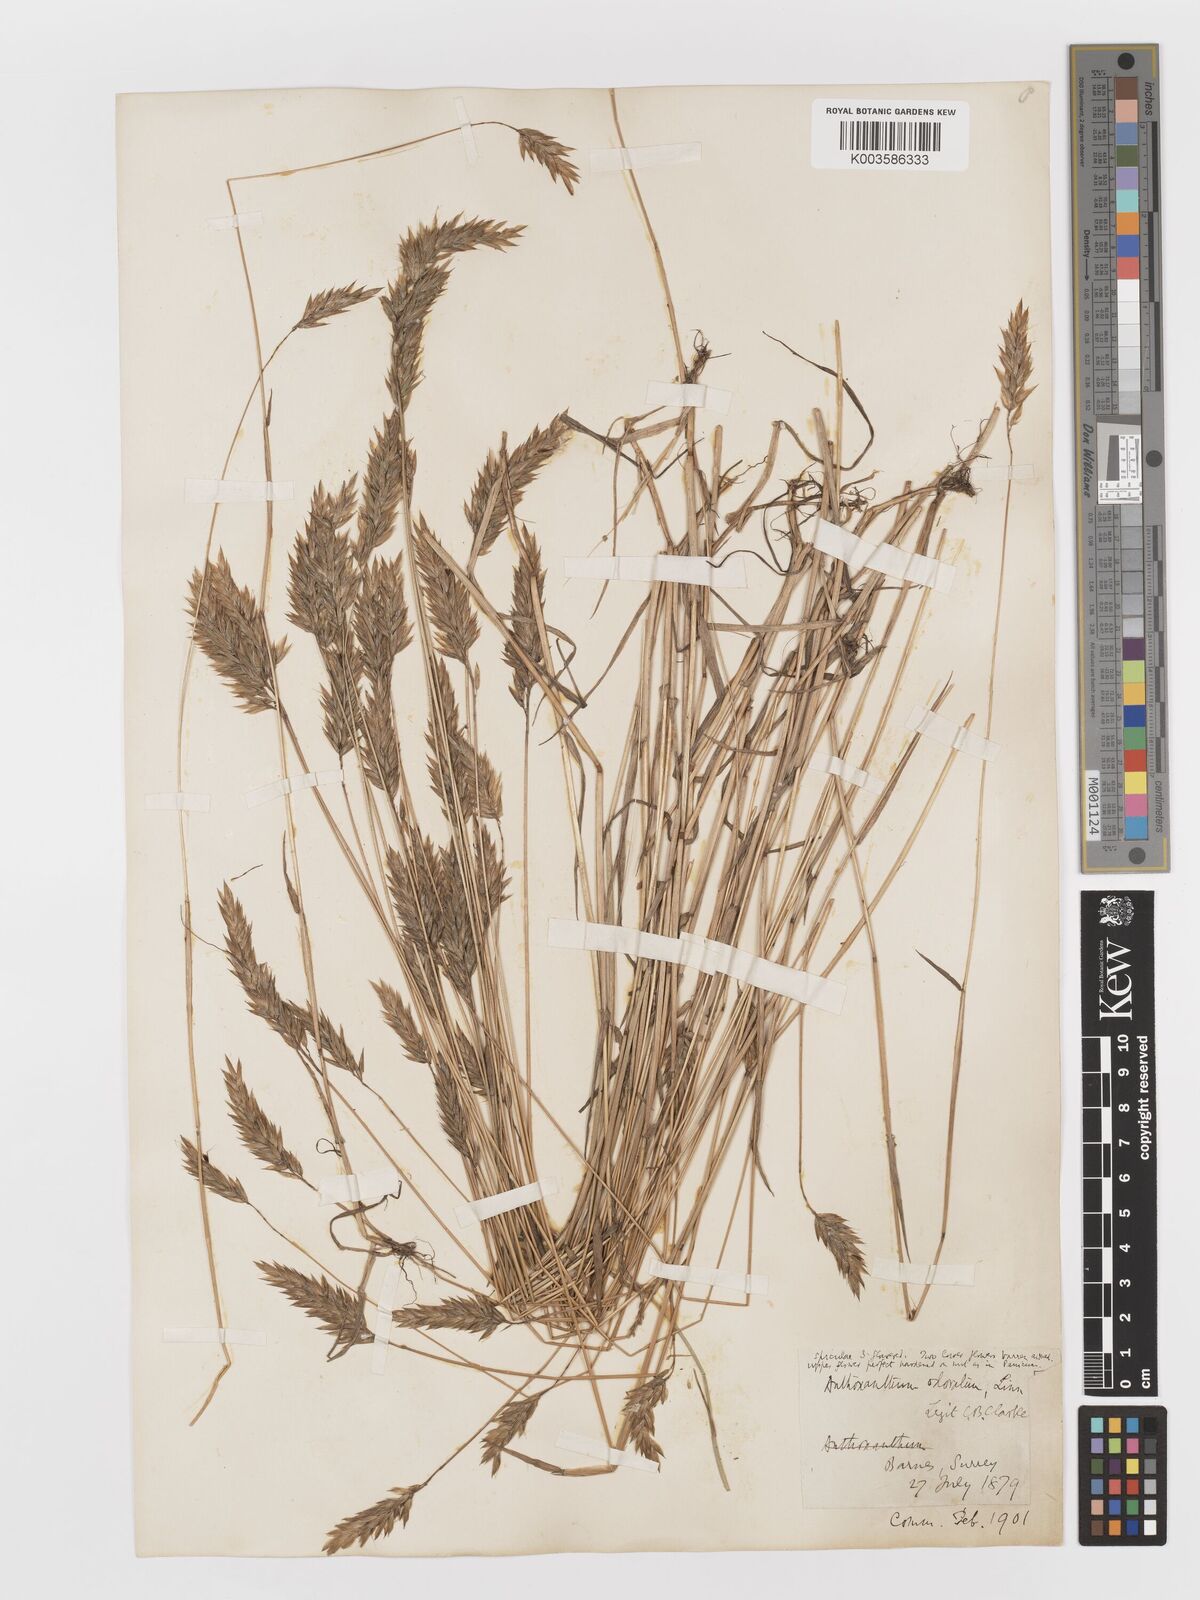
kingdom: Plantae
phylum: Tracheophyta
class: Liliopsida
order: Poales
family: Poaceae
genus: Anthoxanthum
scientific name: Anthoxanthum odoratum
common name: Sweet vernalgrass
